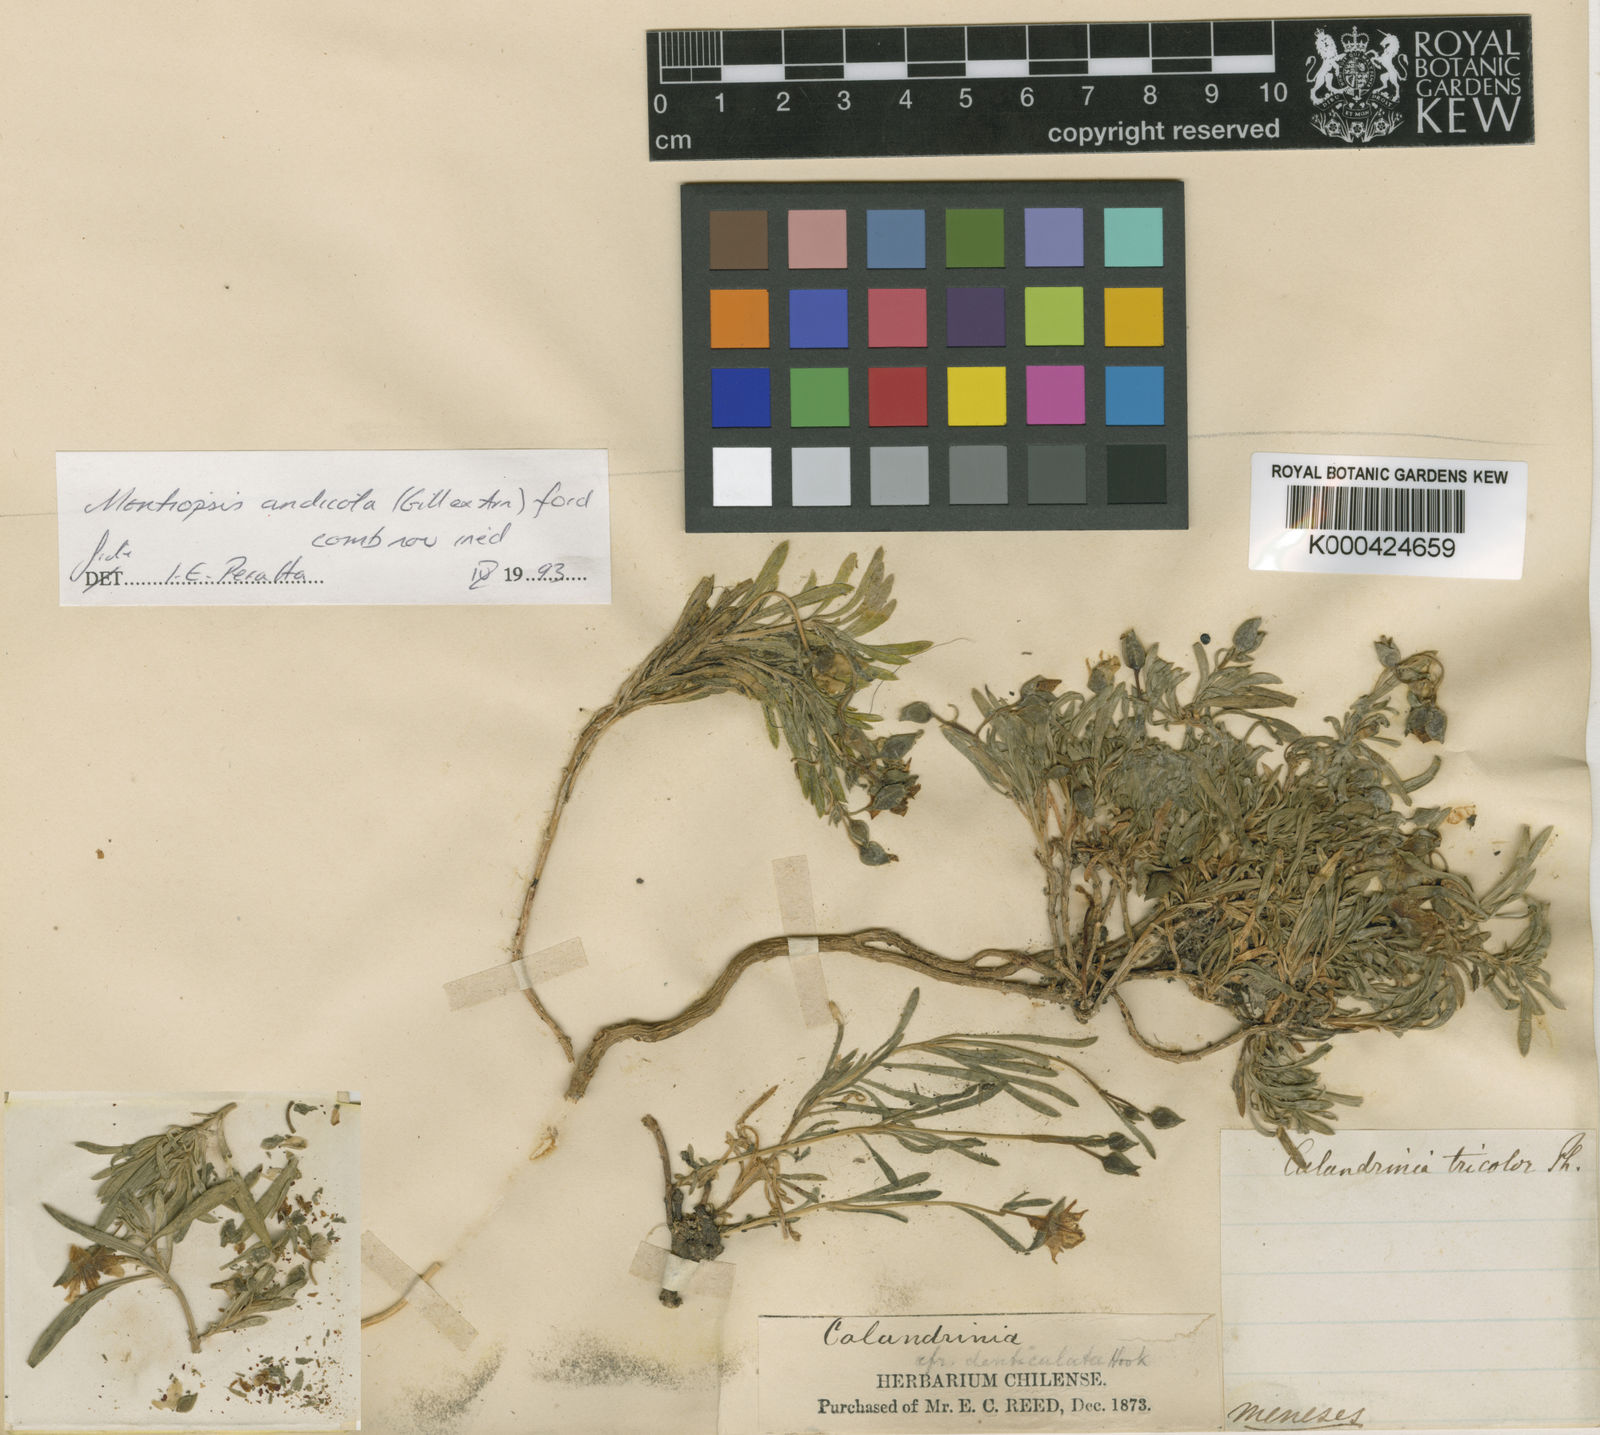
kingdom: Plantae
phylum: Tracheophyta
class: Magnoliopsida
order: Caryophyllales
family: Montiaceae
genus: Montiopsis
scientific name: Montiopsis andicola
